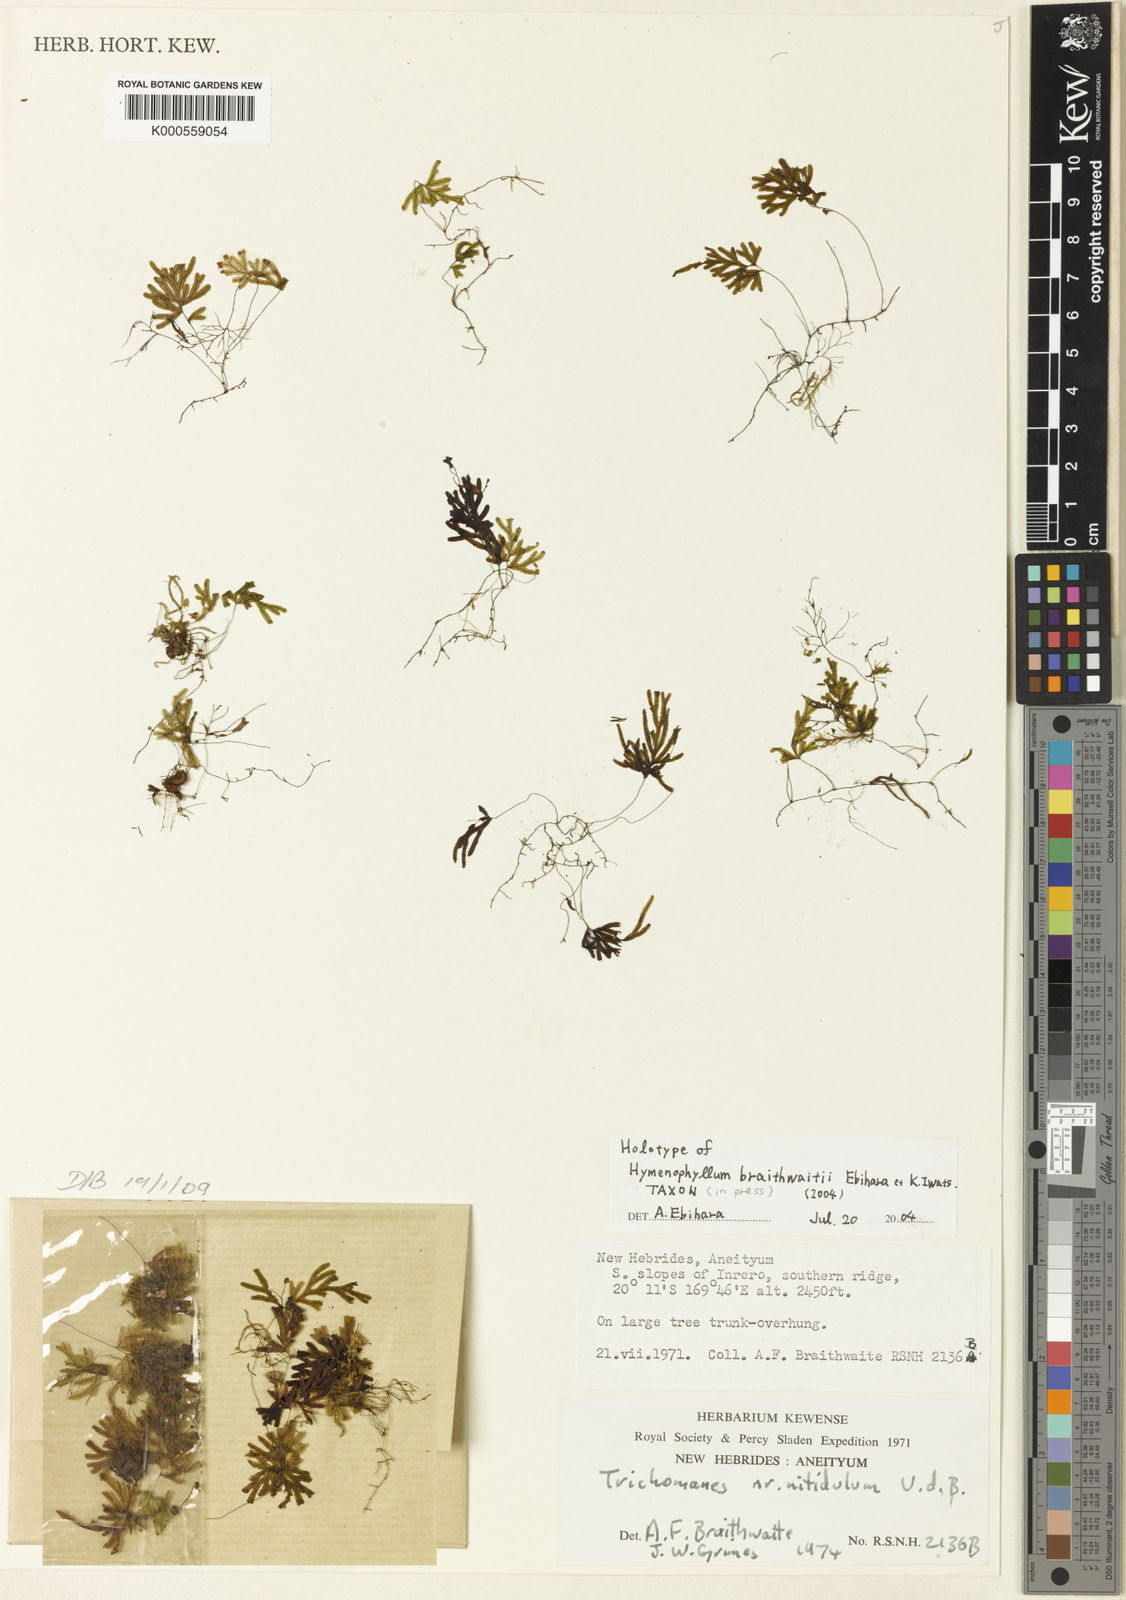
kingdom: Plantae
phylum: Tracheophyta
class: Polypodiopsida
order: Hymenophyllales
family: Hymenophyllaceae
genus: Hymenophyllum
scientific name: Hymenophyllum braithwaitei
